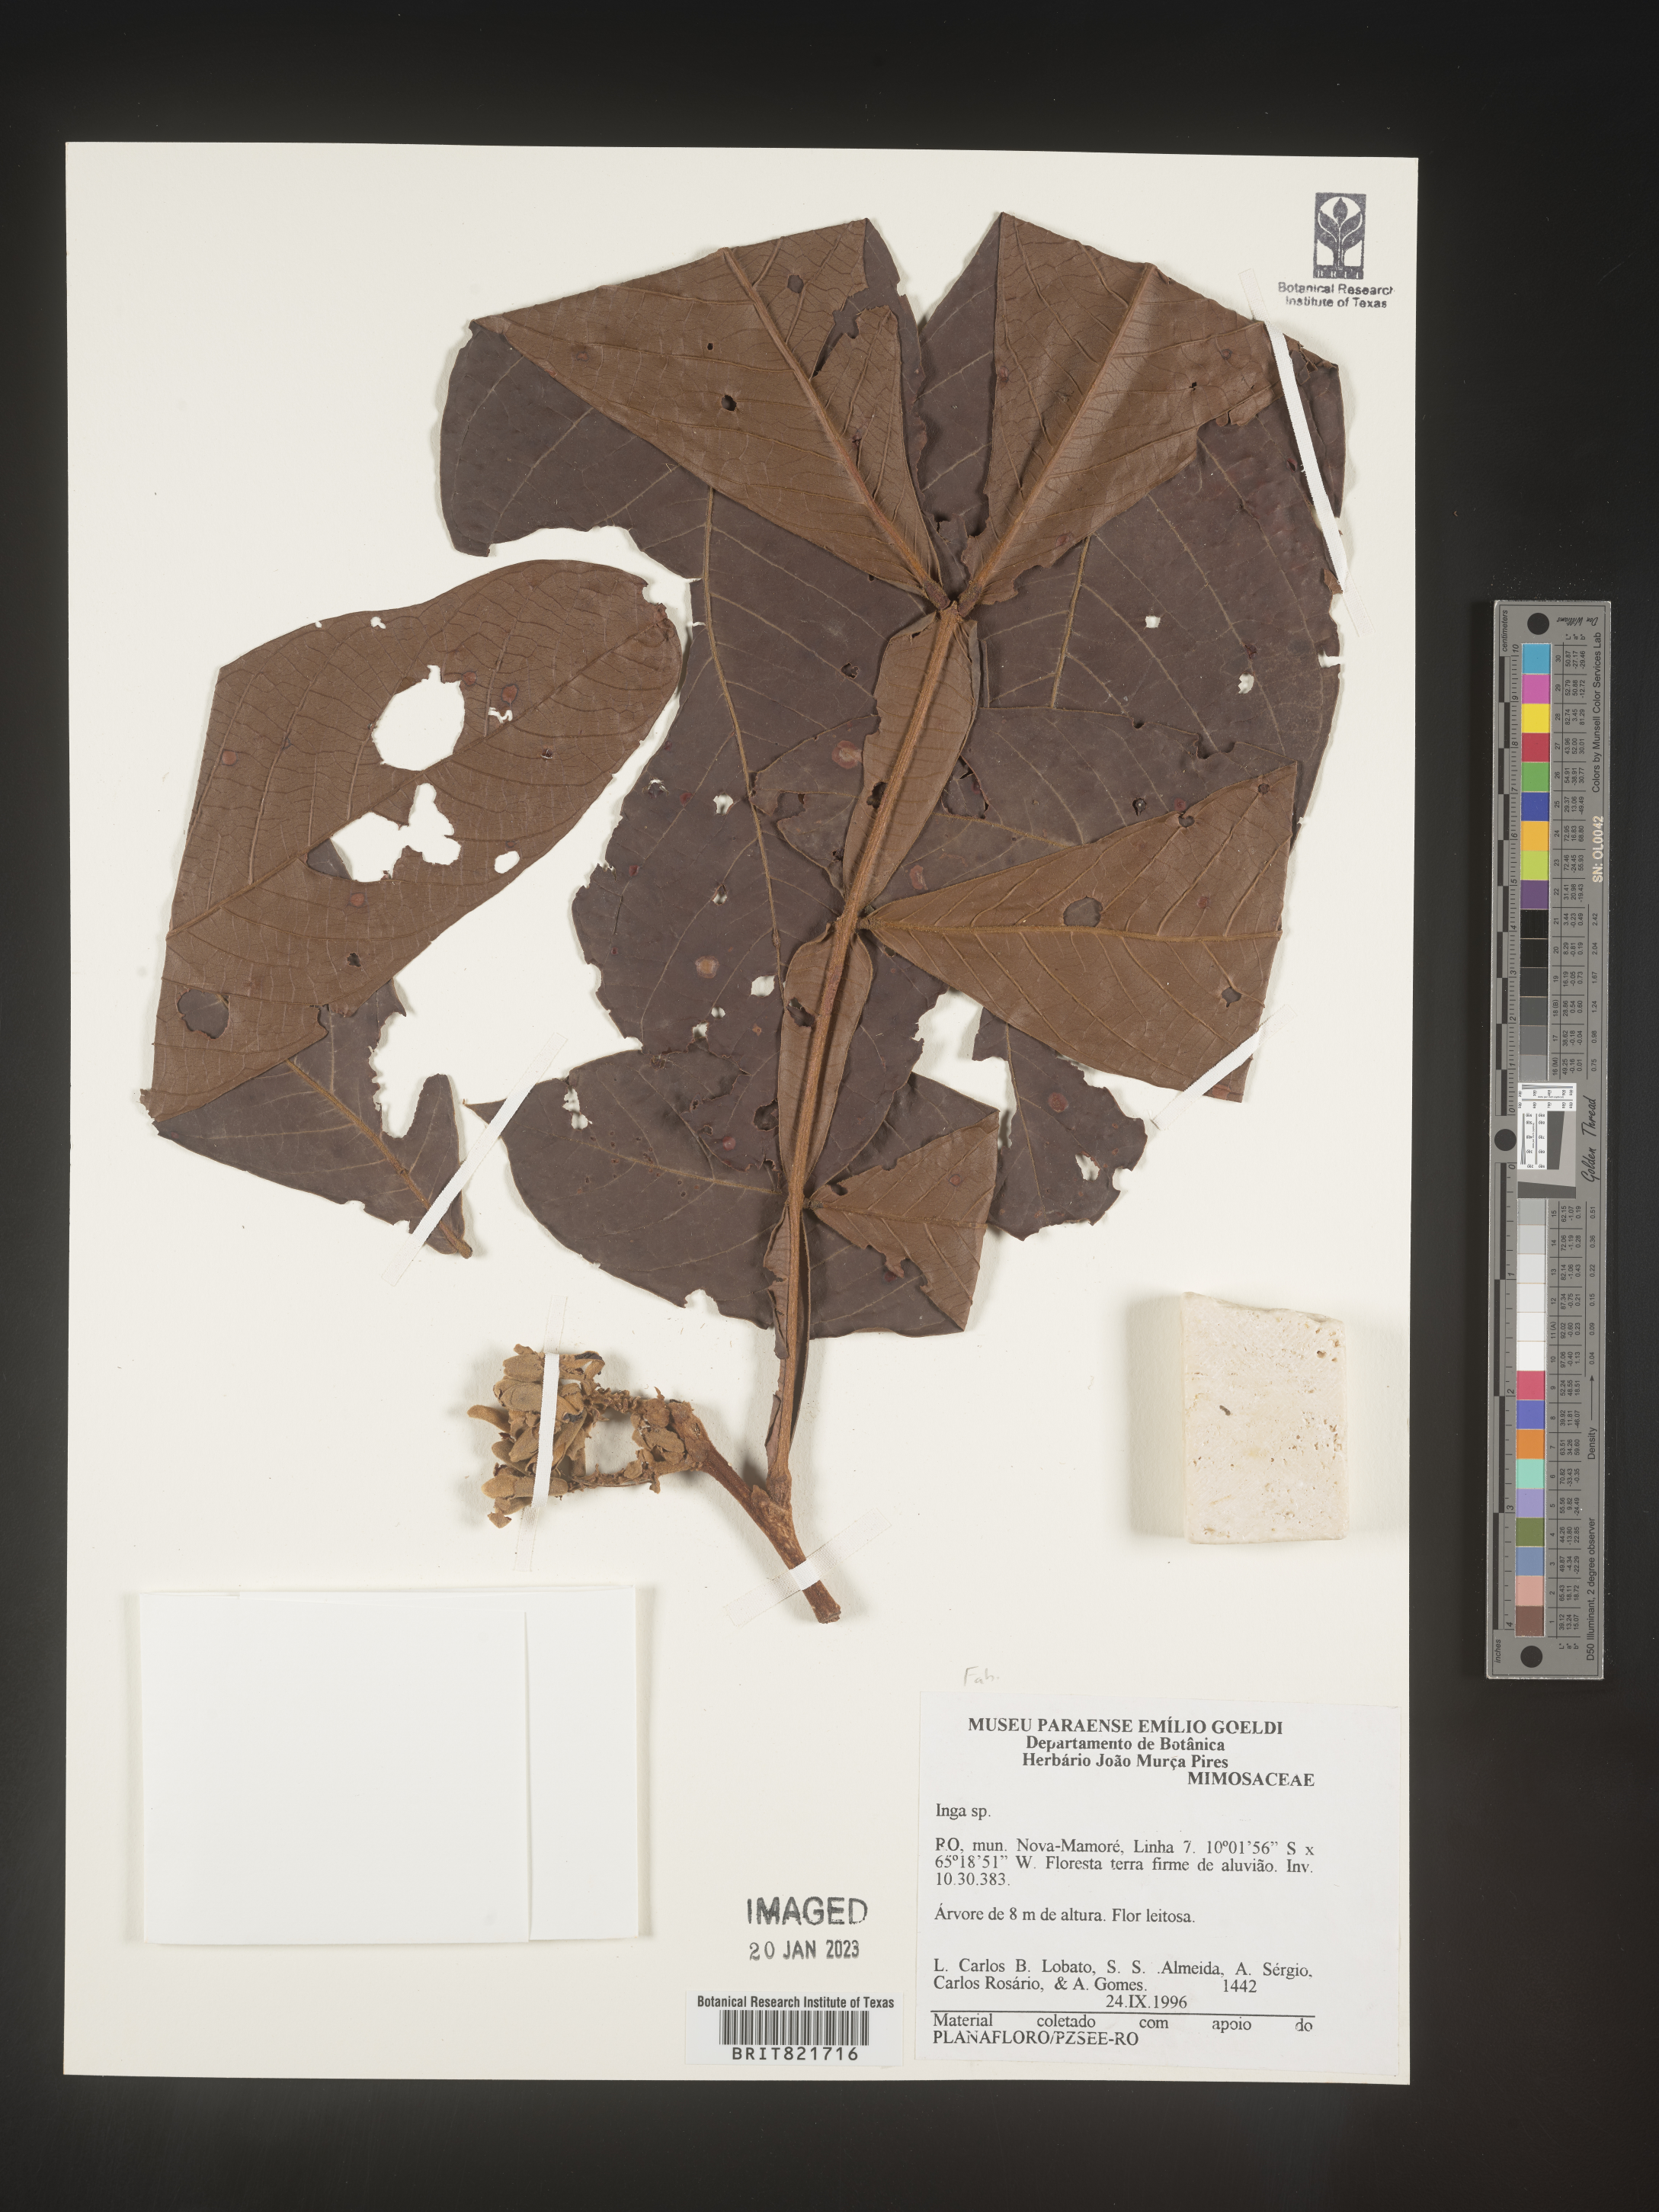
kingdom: Plantae
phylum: Tracheophyta
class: Magnoliopsida
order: Fabales
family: Fabaceae
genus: Inga
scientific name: Inga
